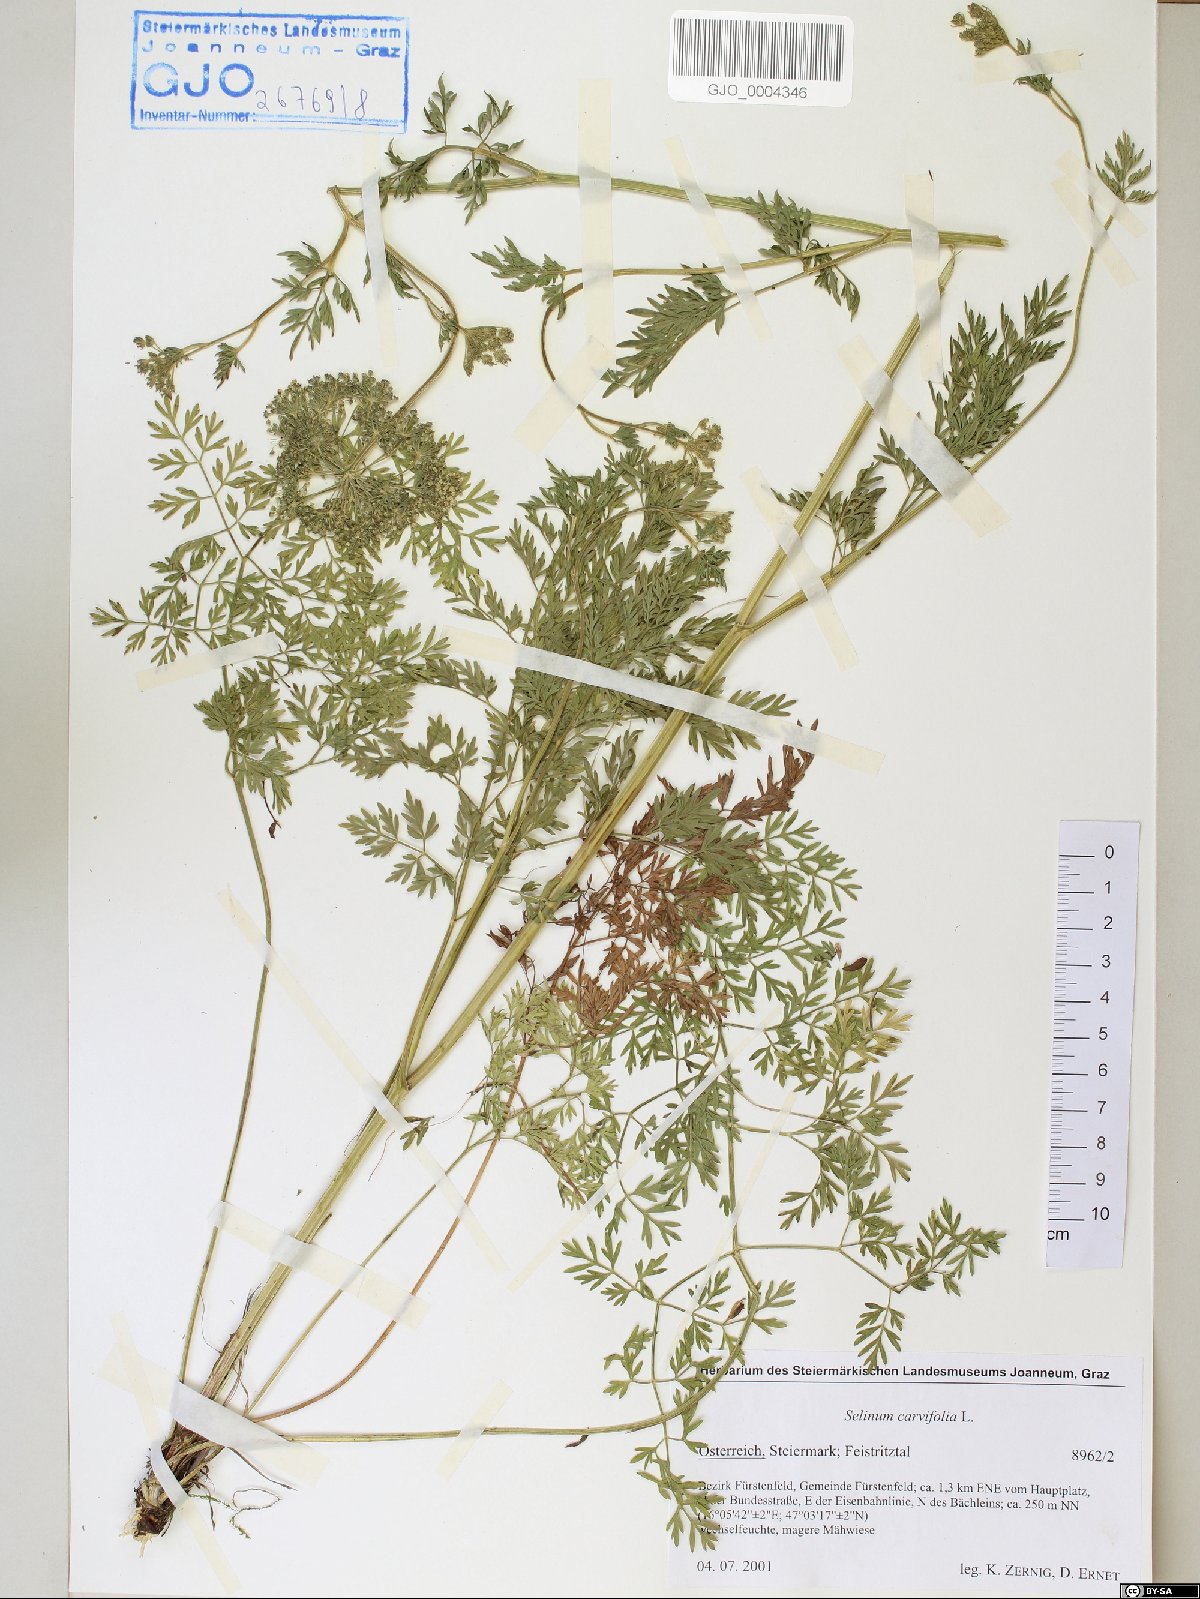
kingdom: Plantae
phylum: Tracheophyta
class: Magnoliopsida
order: Apiales
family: Apiaceae
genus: Selinum
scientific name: Selinum carvifolia
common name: Cambridge milk-parsley
